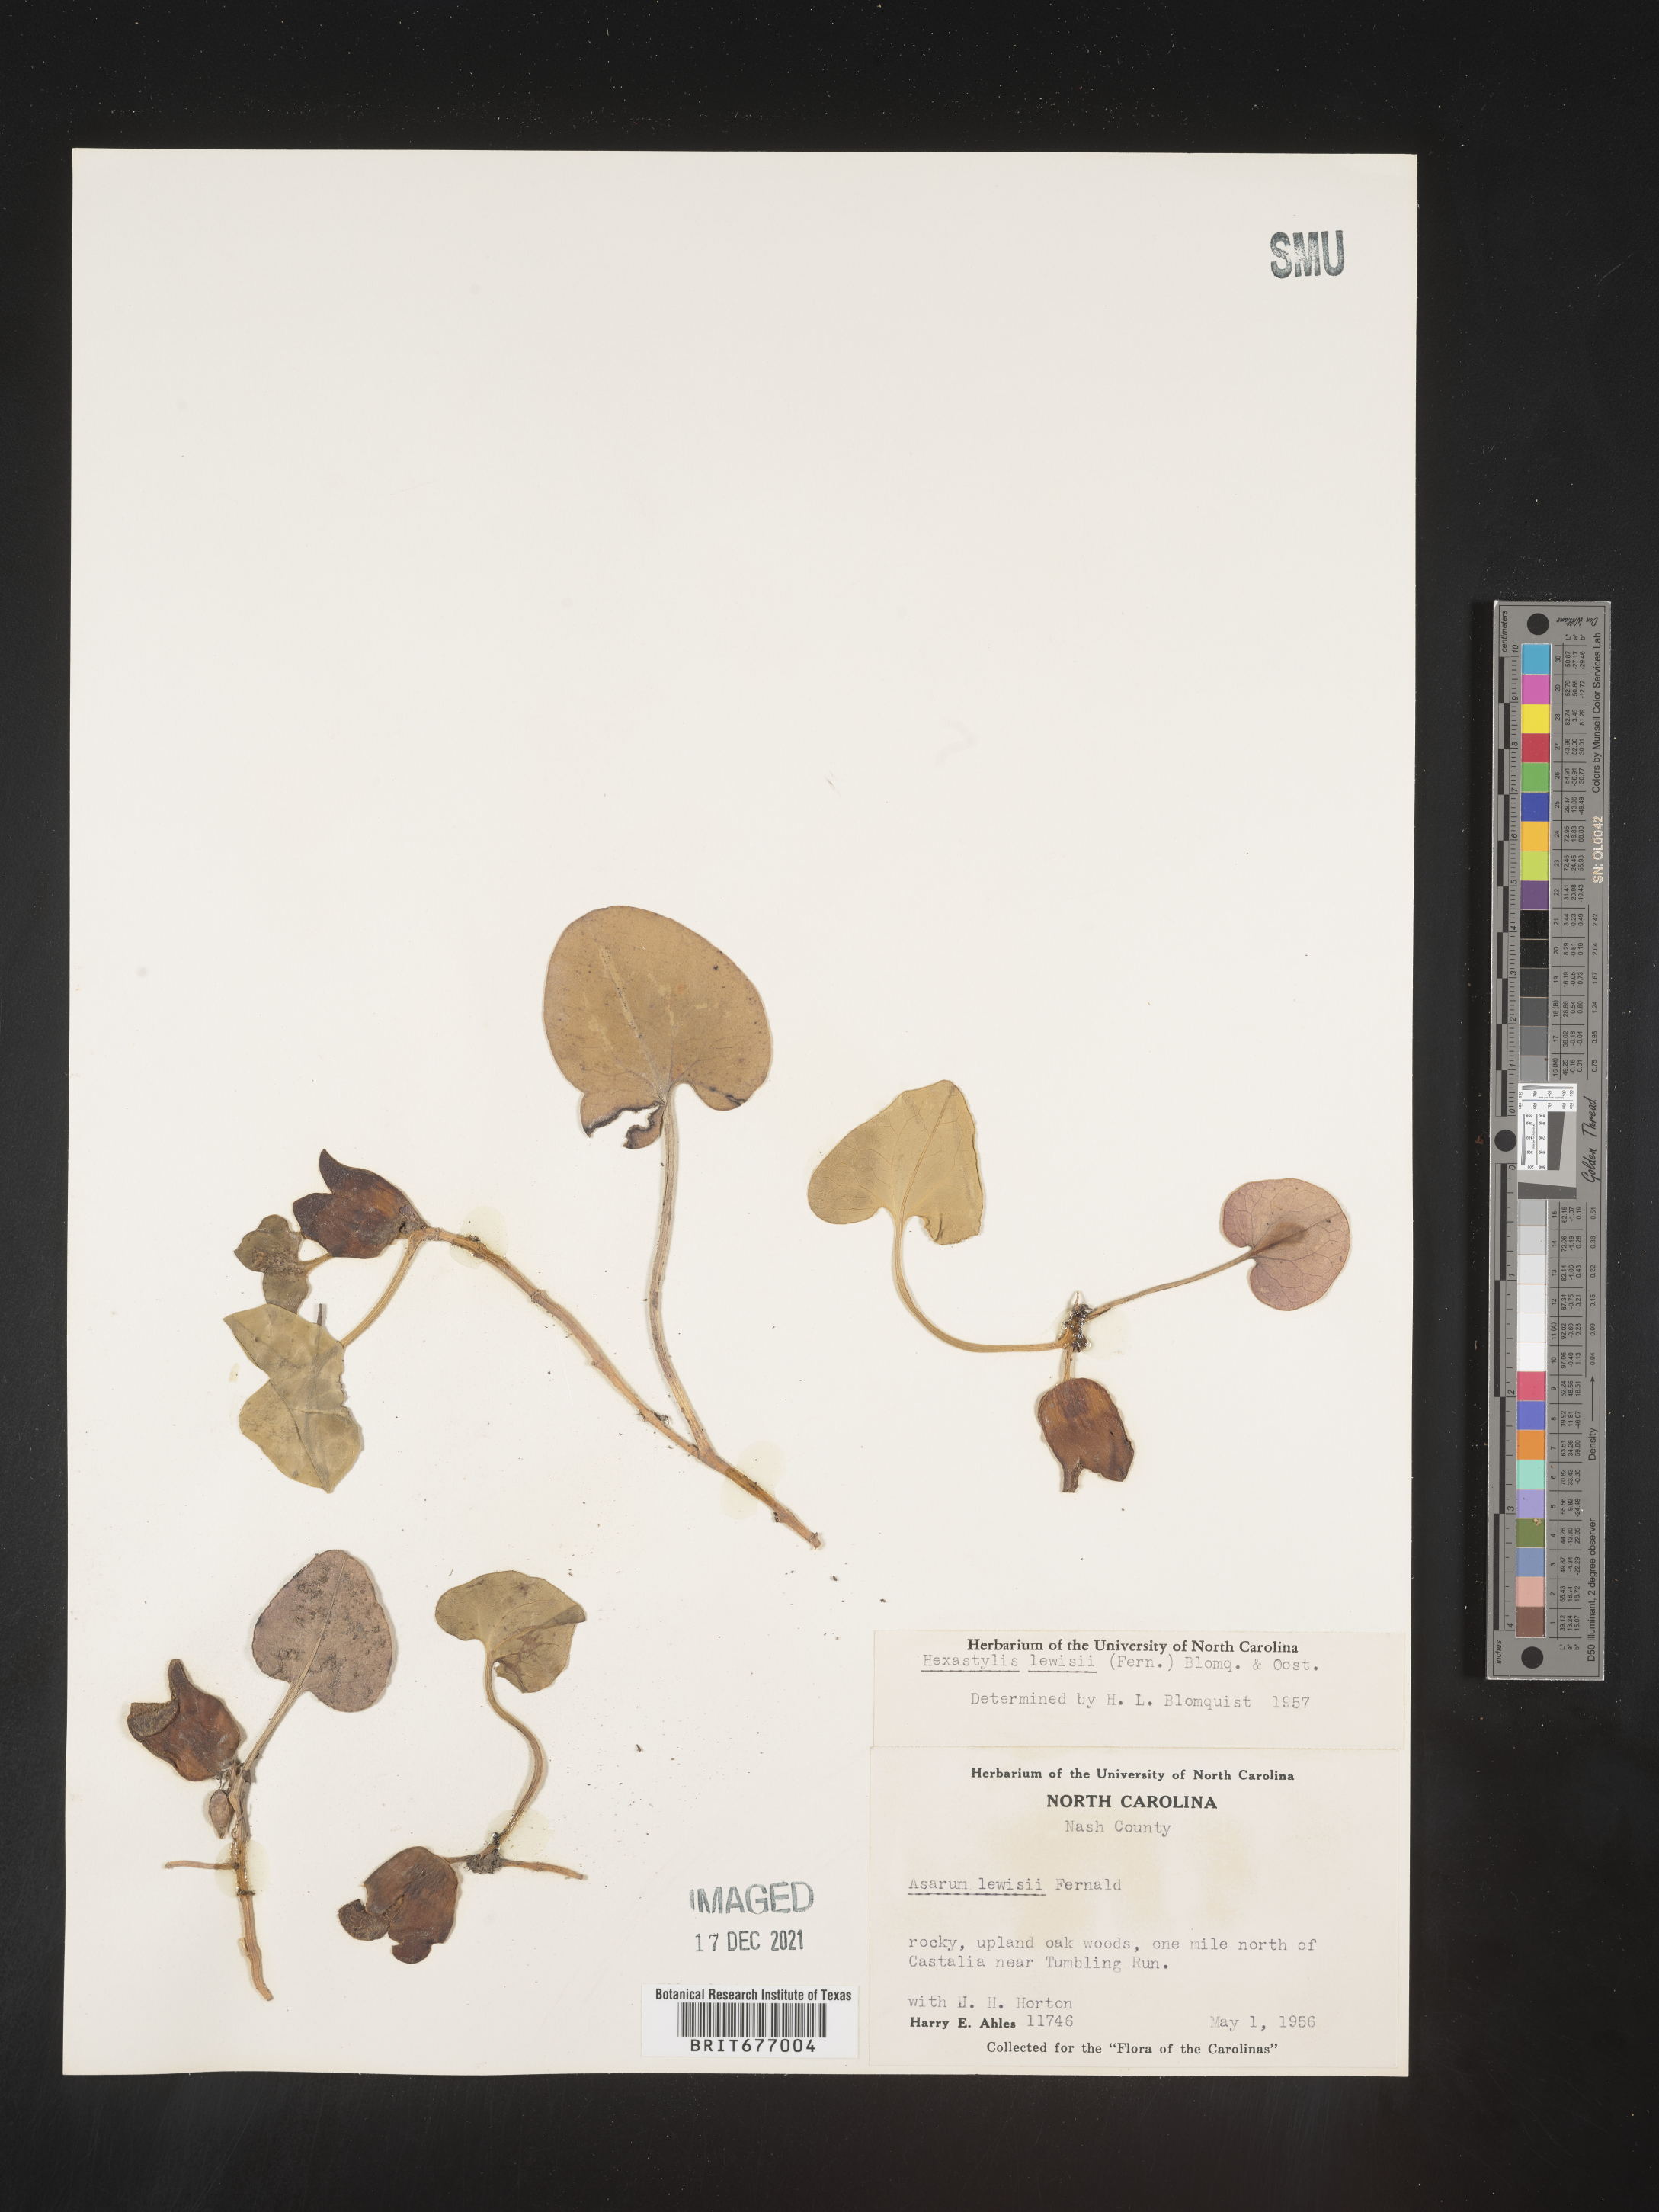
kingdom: Plantae
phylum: Tracheophyta
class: Magnoliopsida
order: Piperales
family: Aristolochiaceae
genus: Asarum
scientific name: Asarum
